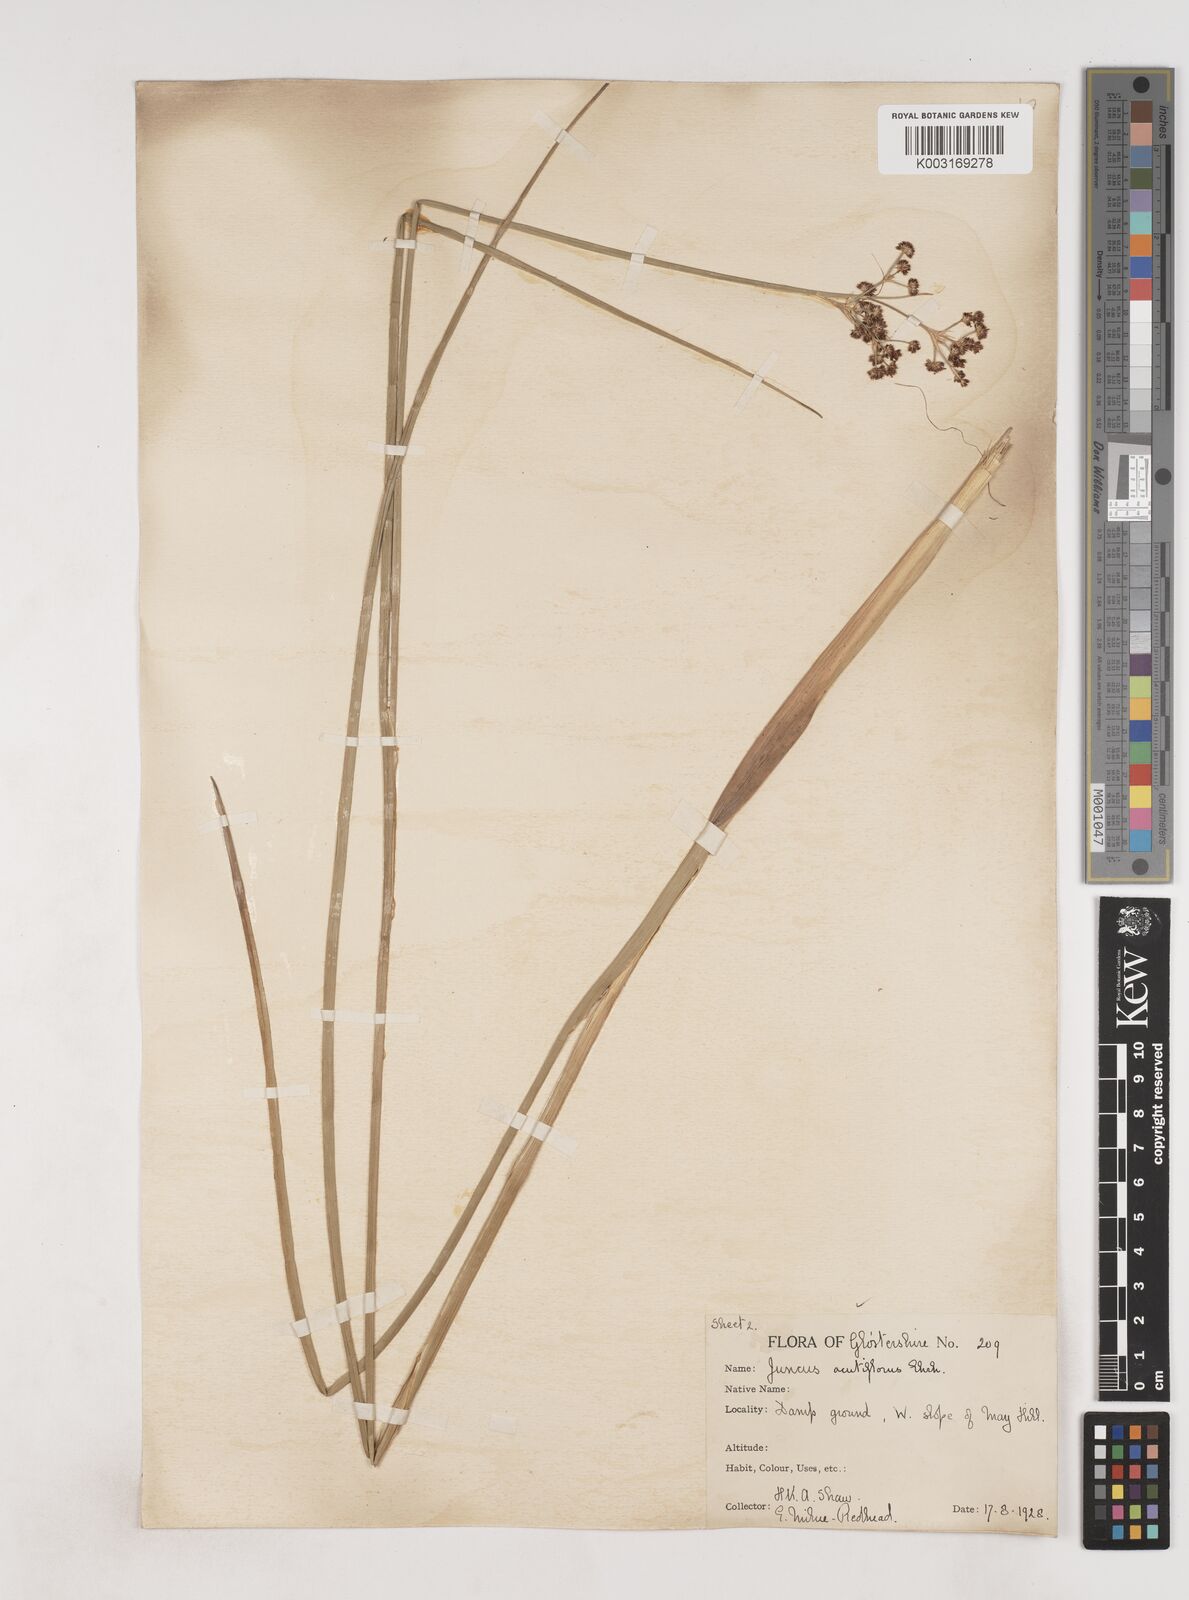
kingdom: Plantae
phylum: Tracheophyta
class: Liliopsida
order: Poales
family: Juncaceae
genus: Juncus
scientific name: Juncus acutiflorus
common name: Sharp-flowered rush
